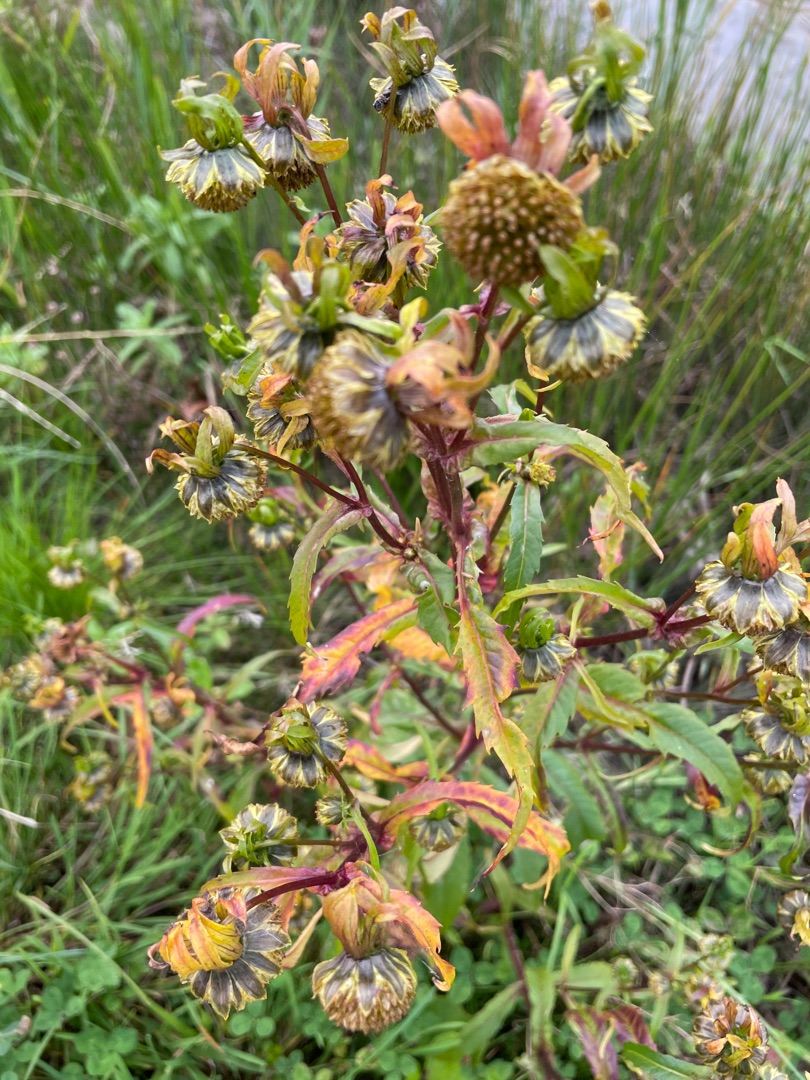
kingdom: Plantae
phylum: Tracheophyta
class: Magnoliopsida
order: Asterales
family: Asteraceae
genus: Bidens
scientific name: Bidens cernua
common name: Nikkende brøndsel
